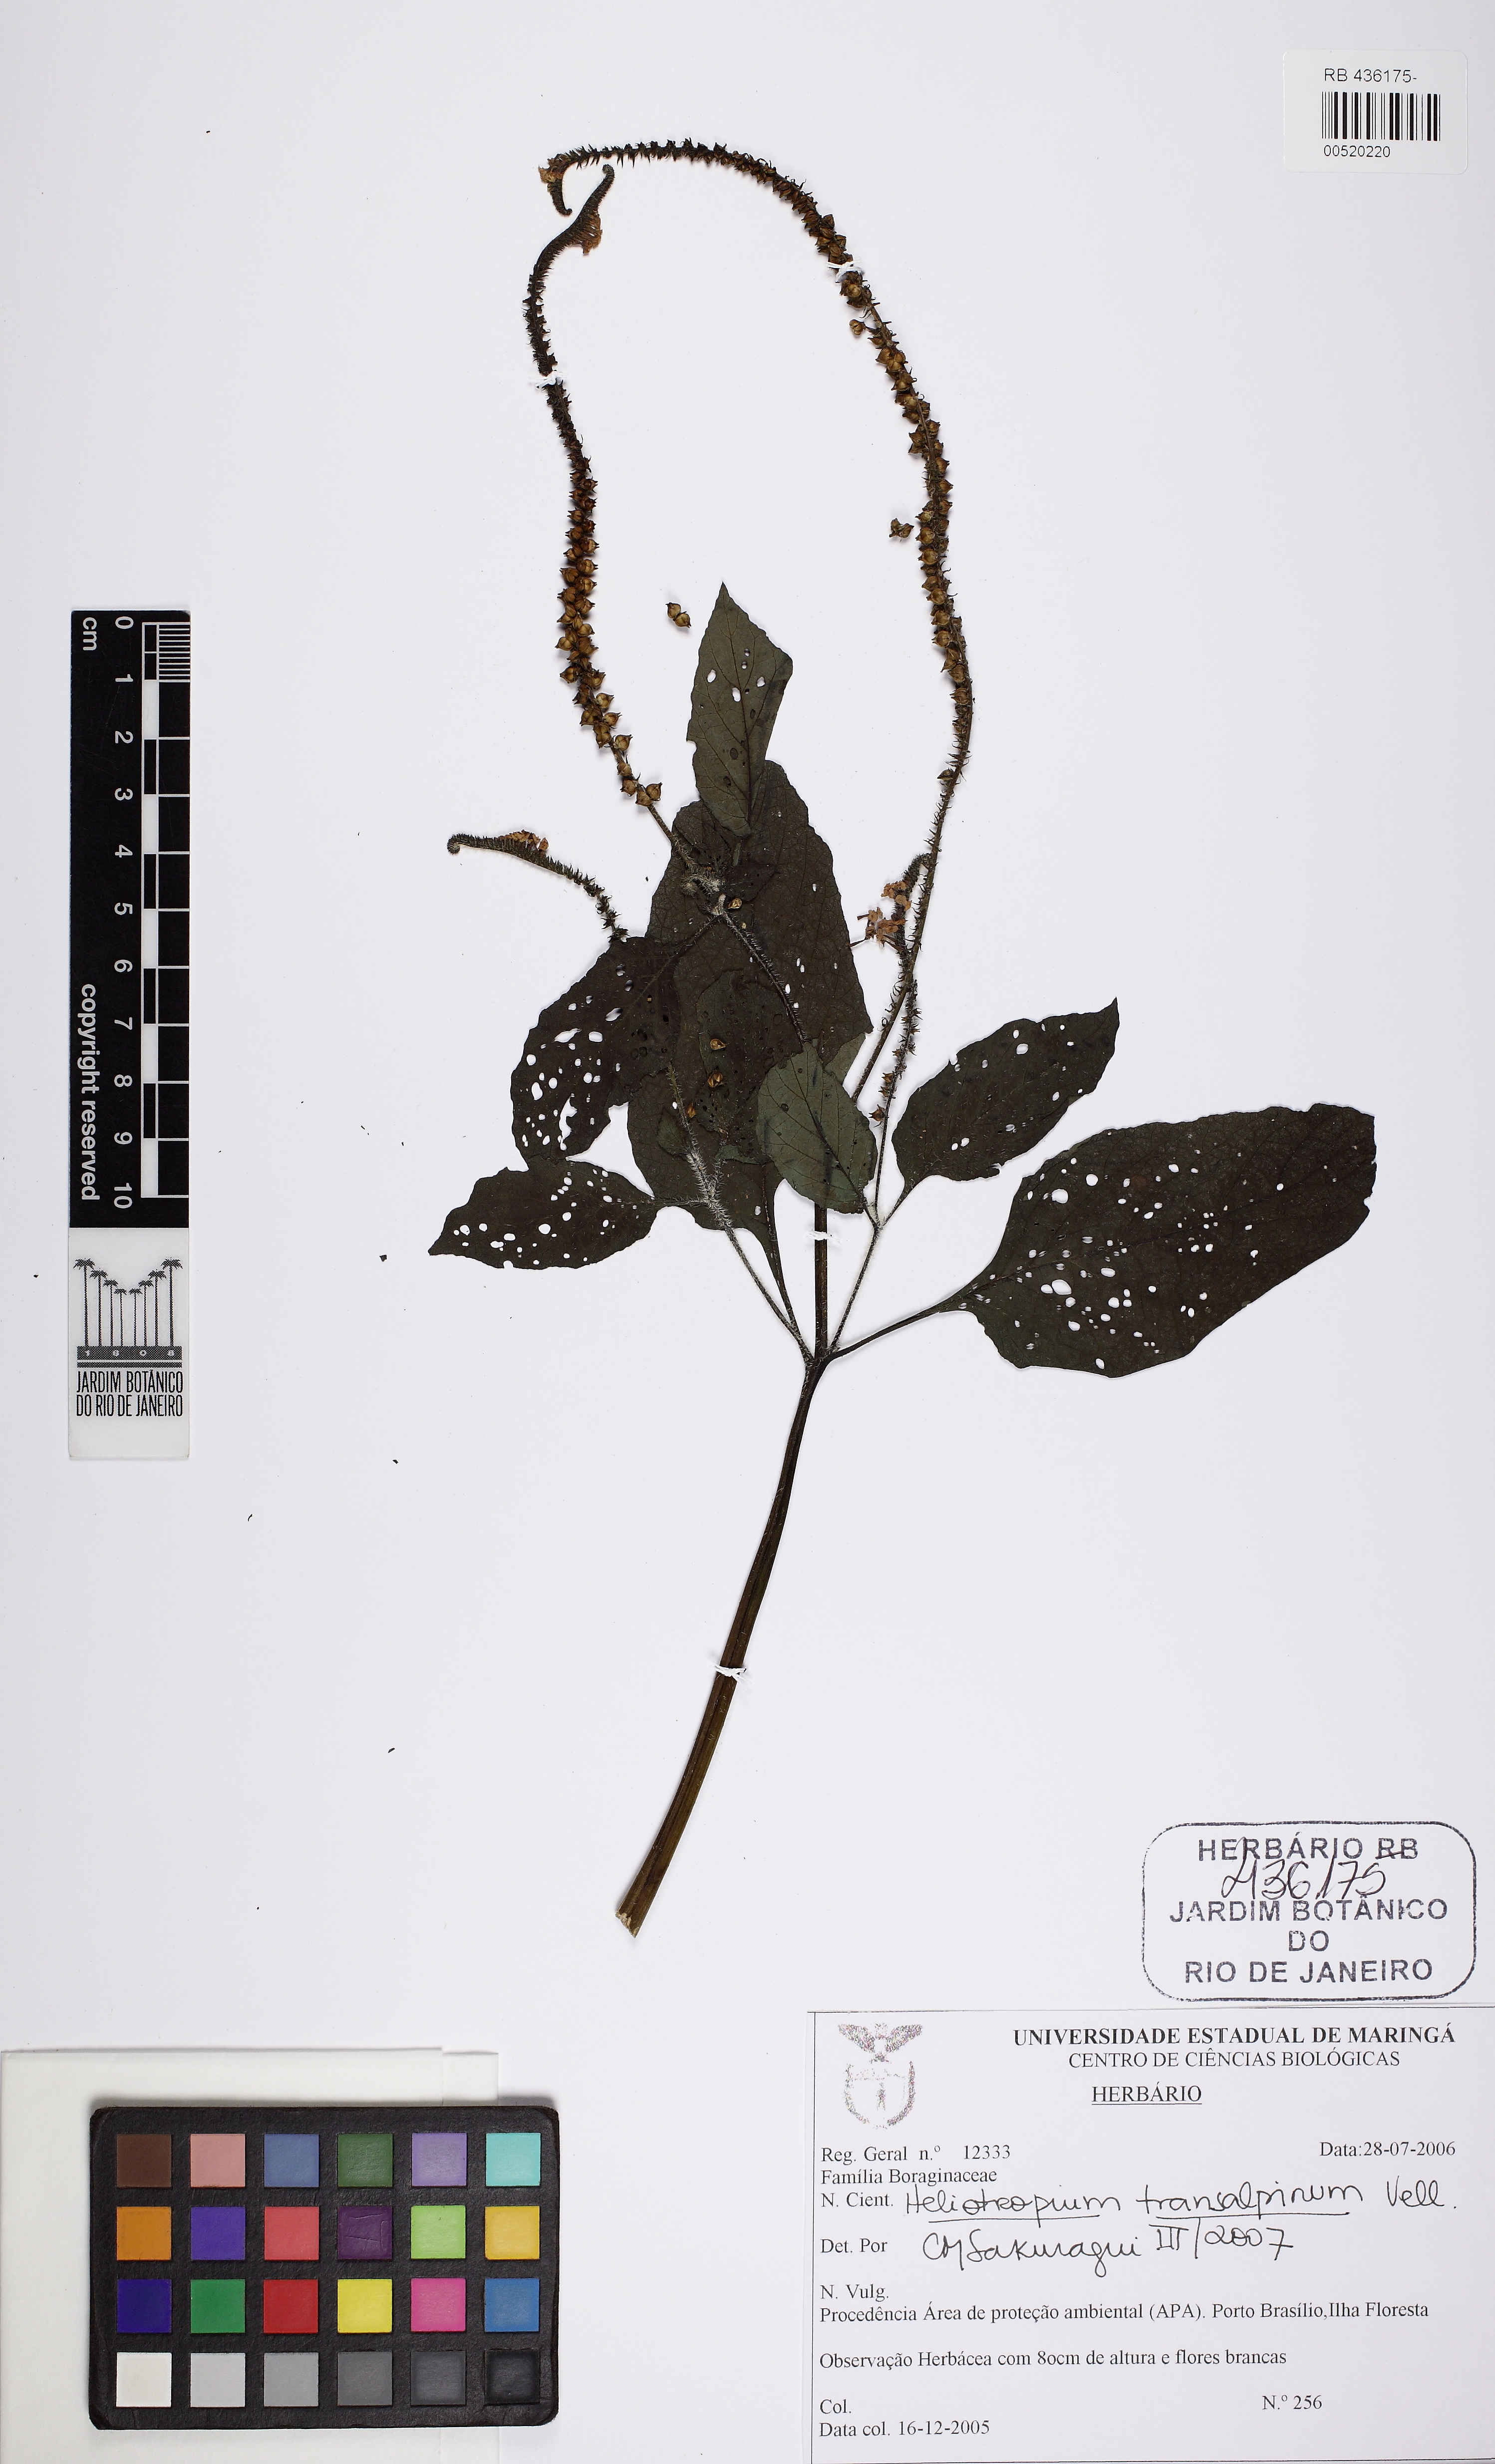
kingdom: Plantae
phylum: Tracheophyta
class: Magnoliopsida
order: Boraginales
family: Heliotropiaceae
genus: Heliotropium
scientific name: Heliotropium transalpinum
